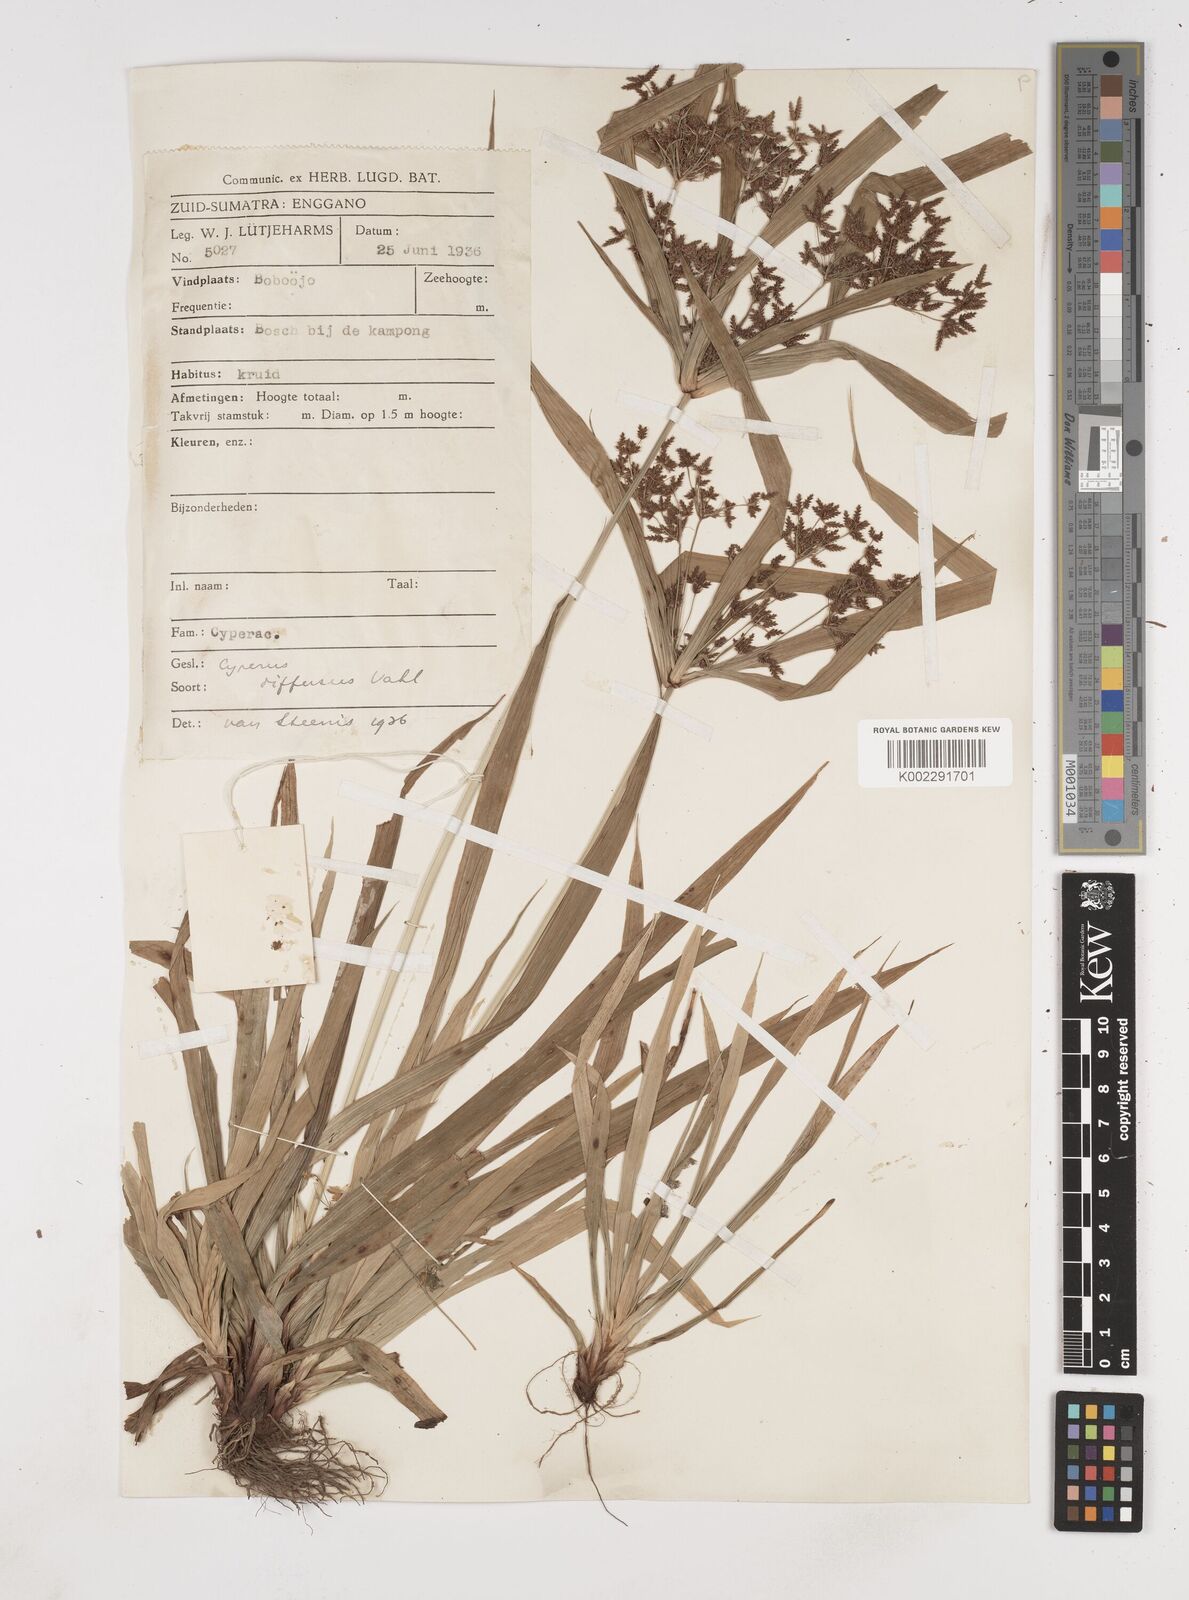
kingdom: Plantae
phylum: Tracheophyta
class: Liliopsida
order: Poales
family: Cyperaceae
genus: Cyperus
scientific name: Cyperus diffusus
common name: Dwarf umbrella grass
